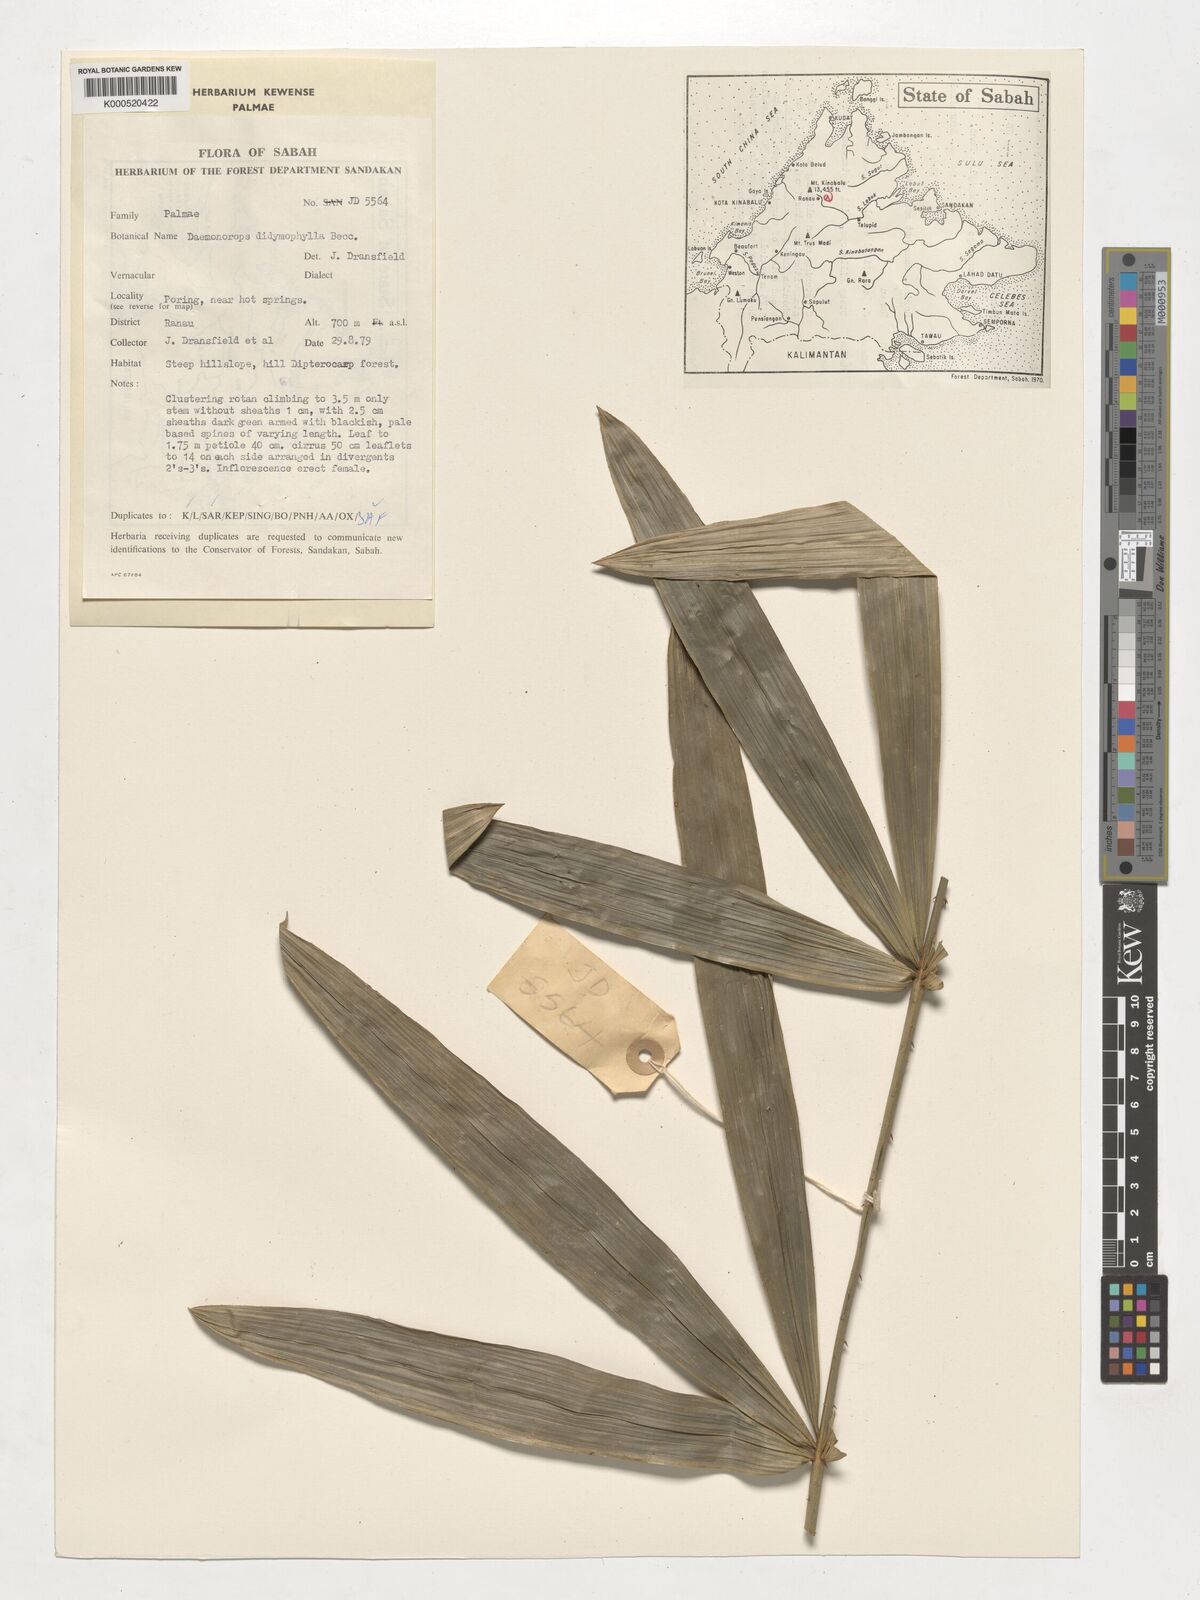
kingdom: Plantae
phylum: Tracheophyta
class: Liliopsida
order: Arecales
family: Arecaceae
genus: Calamus
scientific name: Calamus gracilipes
